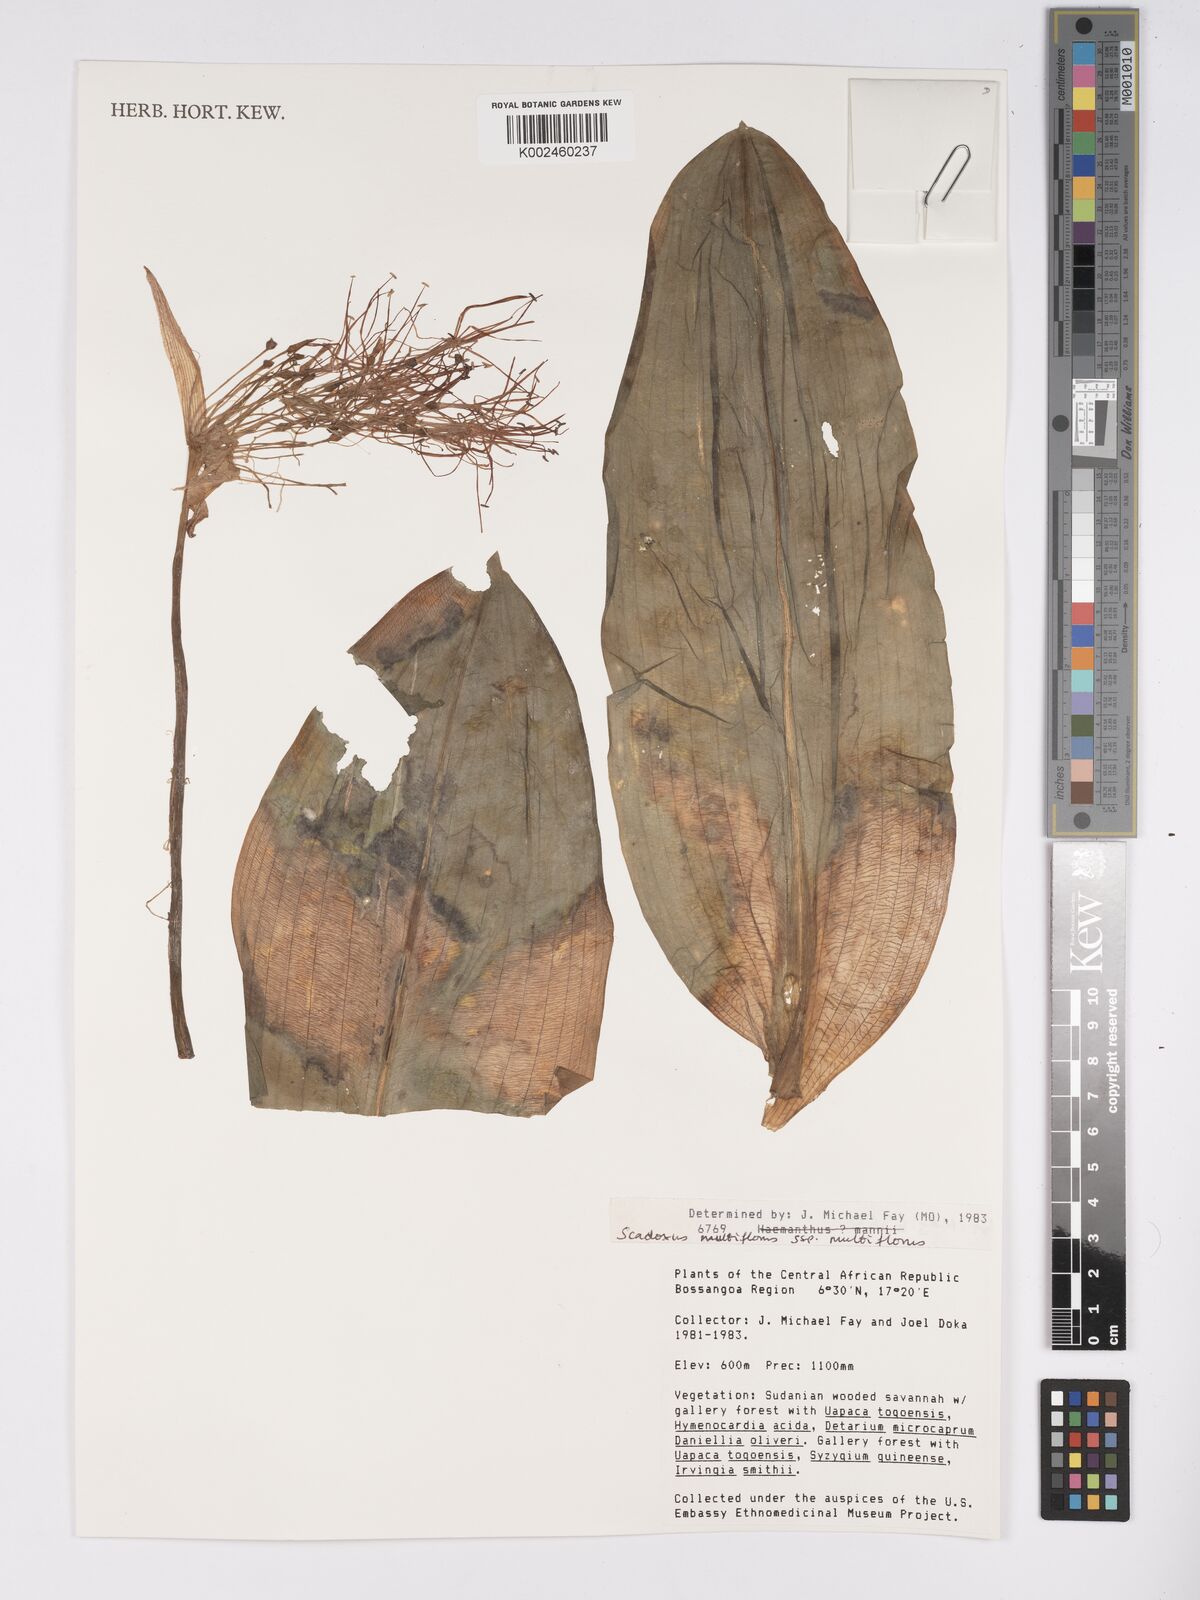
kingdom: Plantae
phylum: Tracheophyta
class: Liliopsida
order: Asparagales
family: Amaryllidaceae
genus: Scadoxus
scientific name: Scadoxus multiflorus
